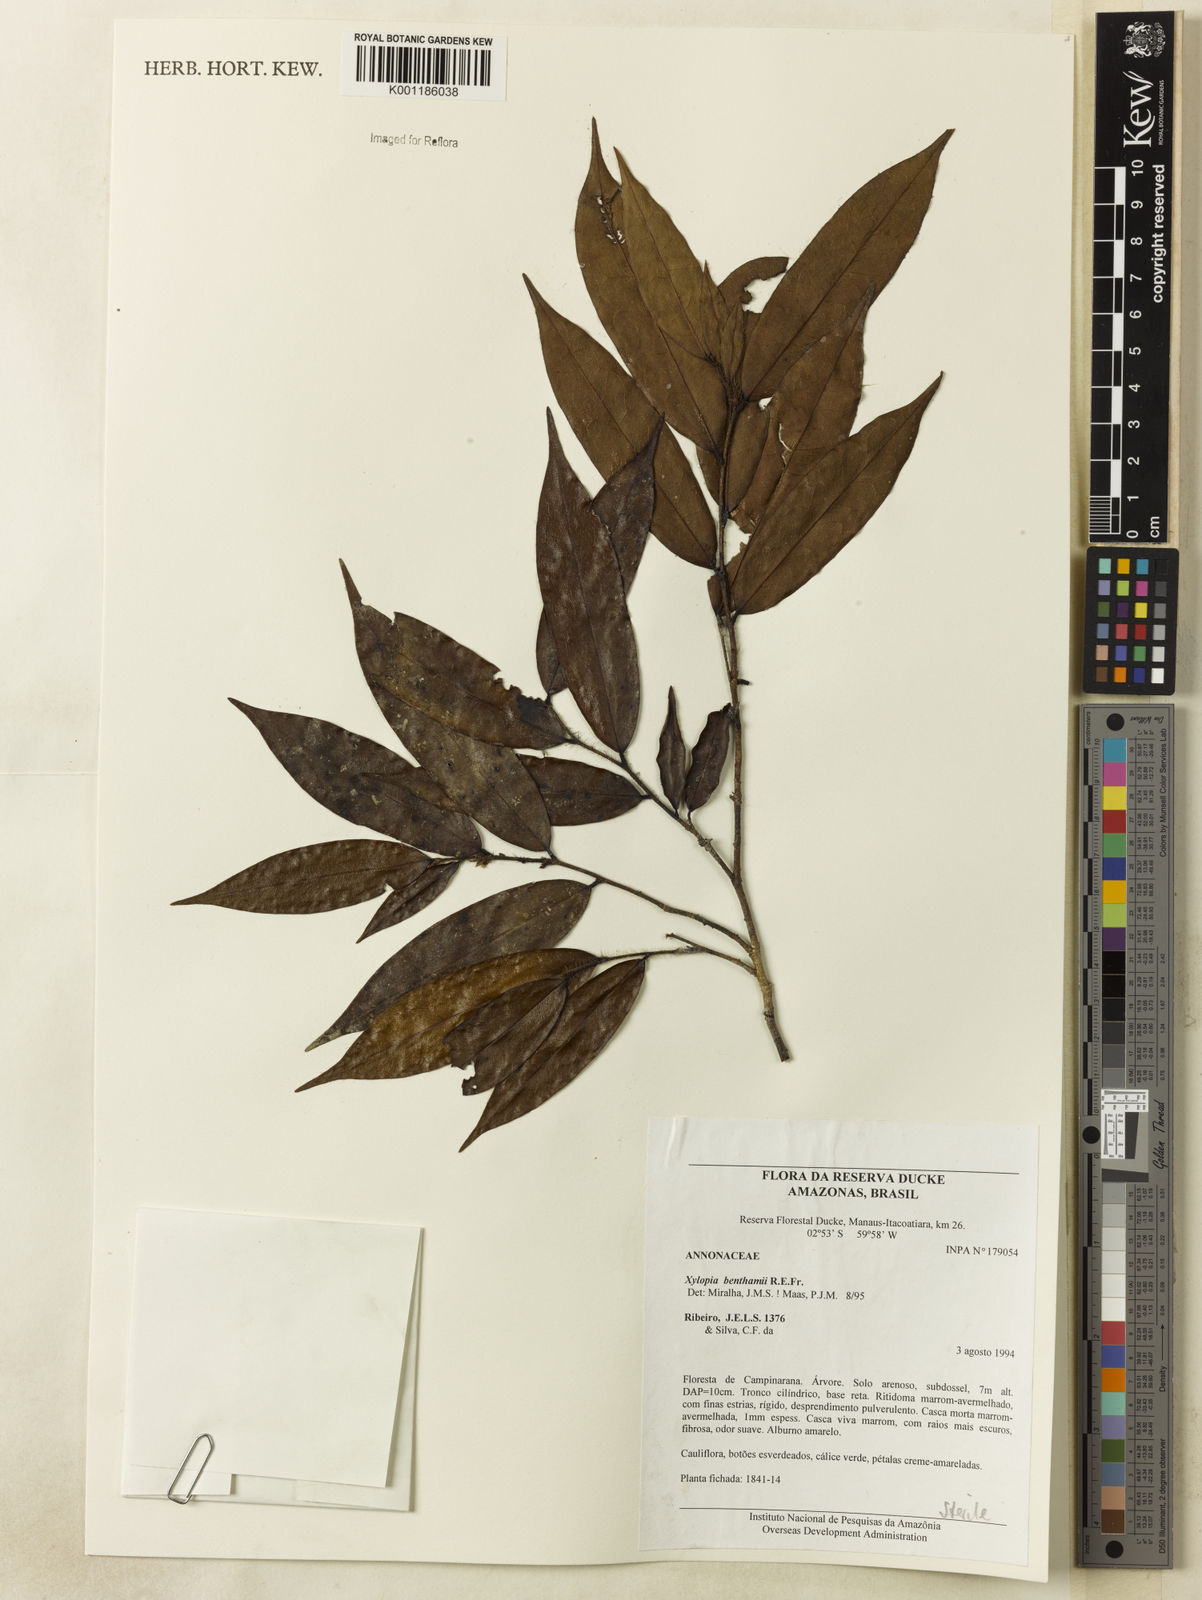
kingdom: Plantae
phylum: Tracheophyta
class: Magnoliopsida
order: Magnoliales
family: Annonaceae
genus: Xylopia
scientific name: Xylopia benthamii
